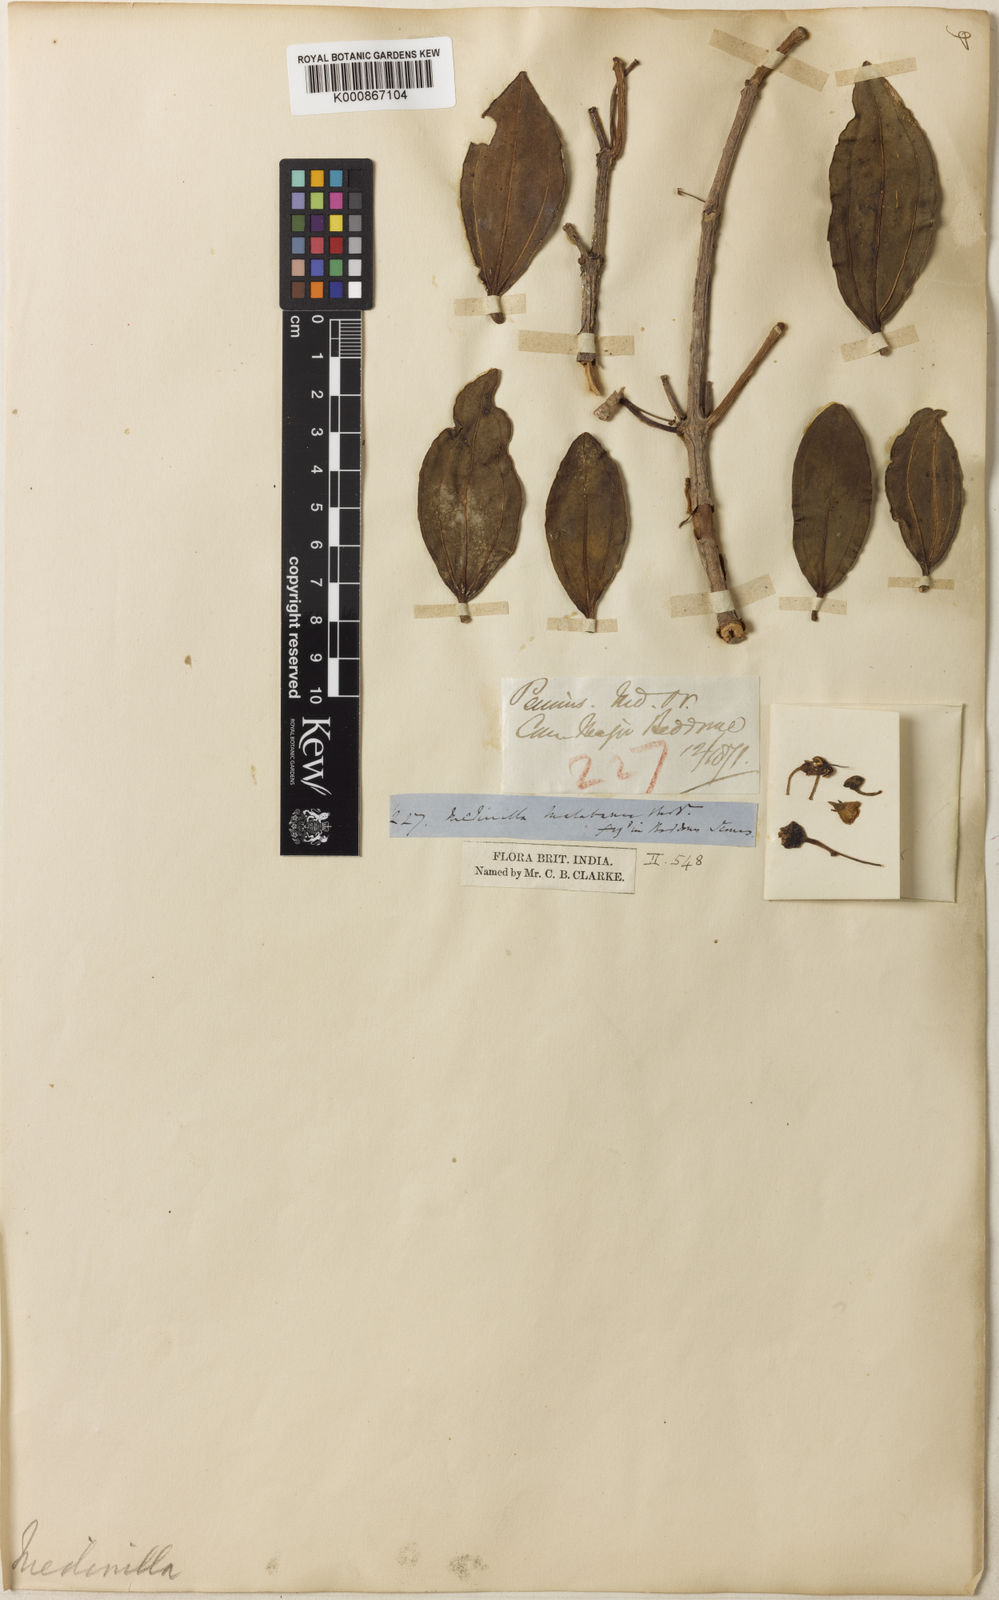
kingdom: Plantae
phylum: Tracheophyta
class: Magnoliopsida
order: Myrtales
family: Melastomataceae
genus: Medinilla
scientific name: Medinilla malabarica
